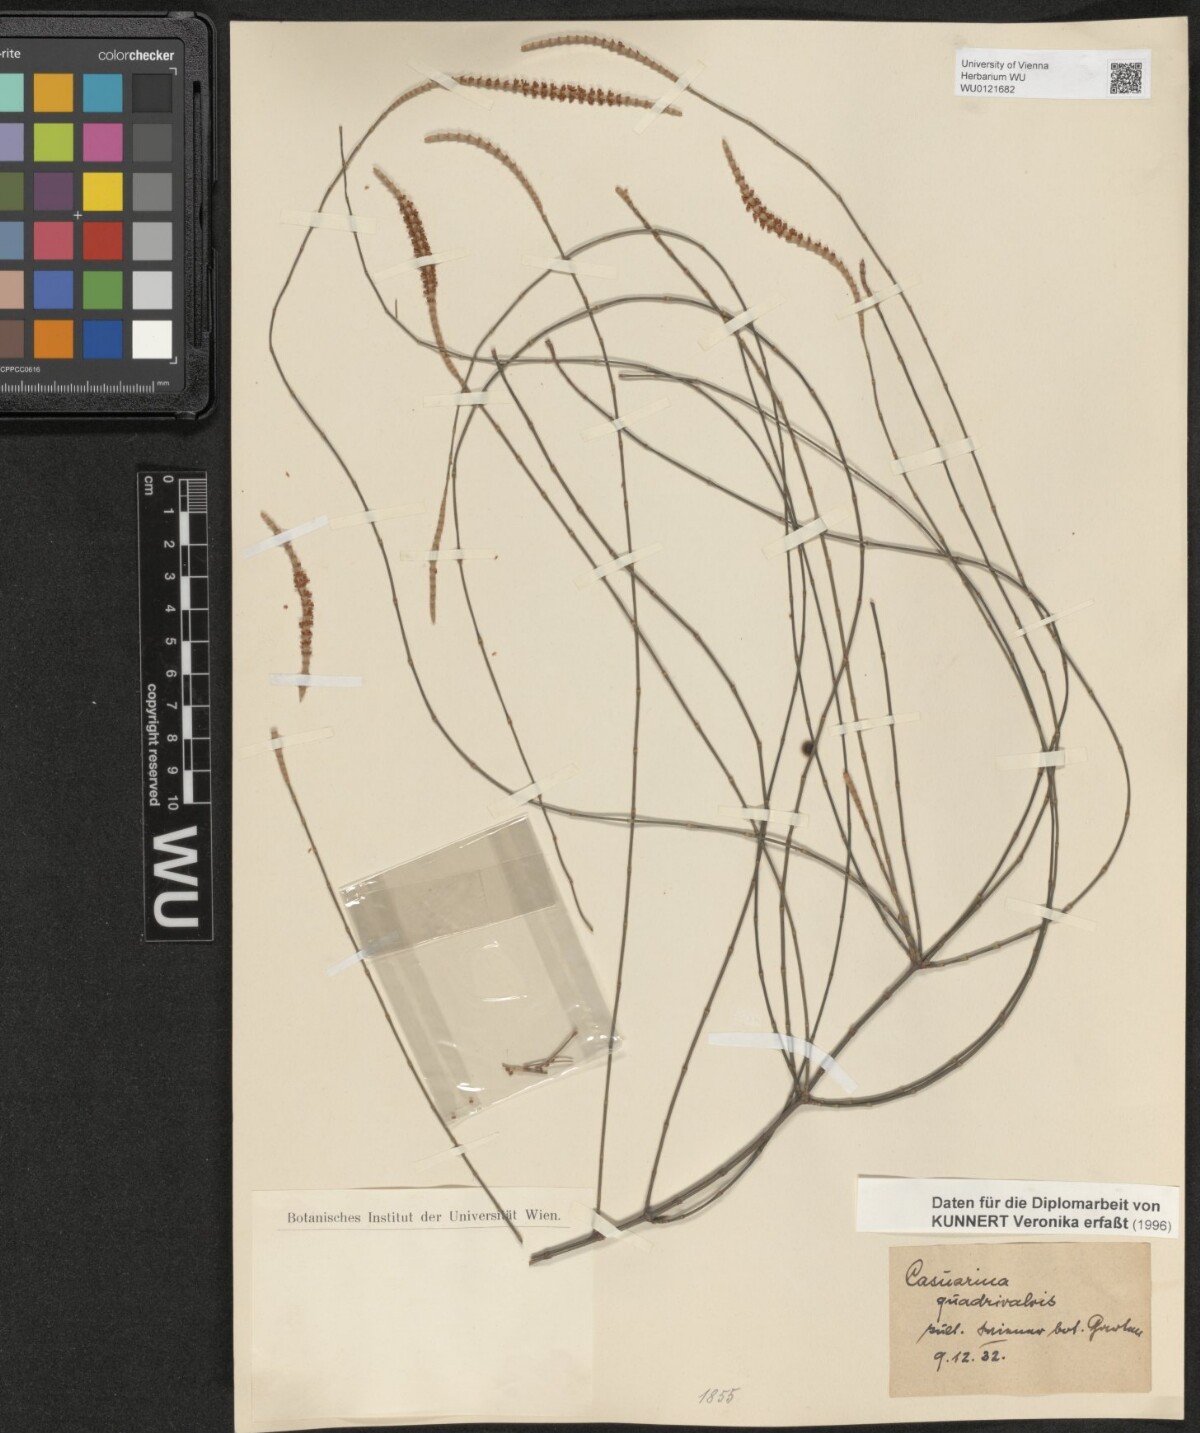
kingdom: Plantae
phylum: Tracheophyta
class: Magnoliopsida
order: Fagales
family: Casuarinaceae
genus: Allocasuarina
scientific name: Allocasuarina verticillata
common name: Drooping she-oak
